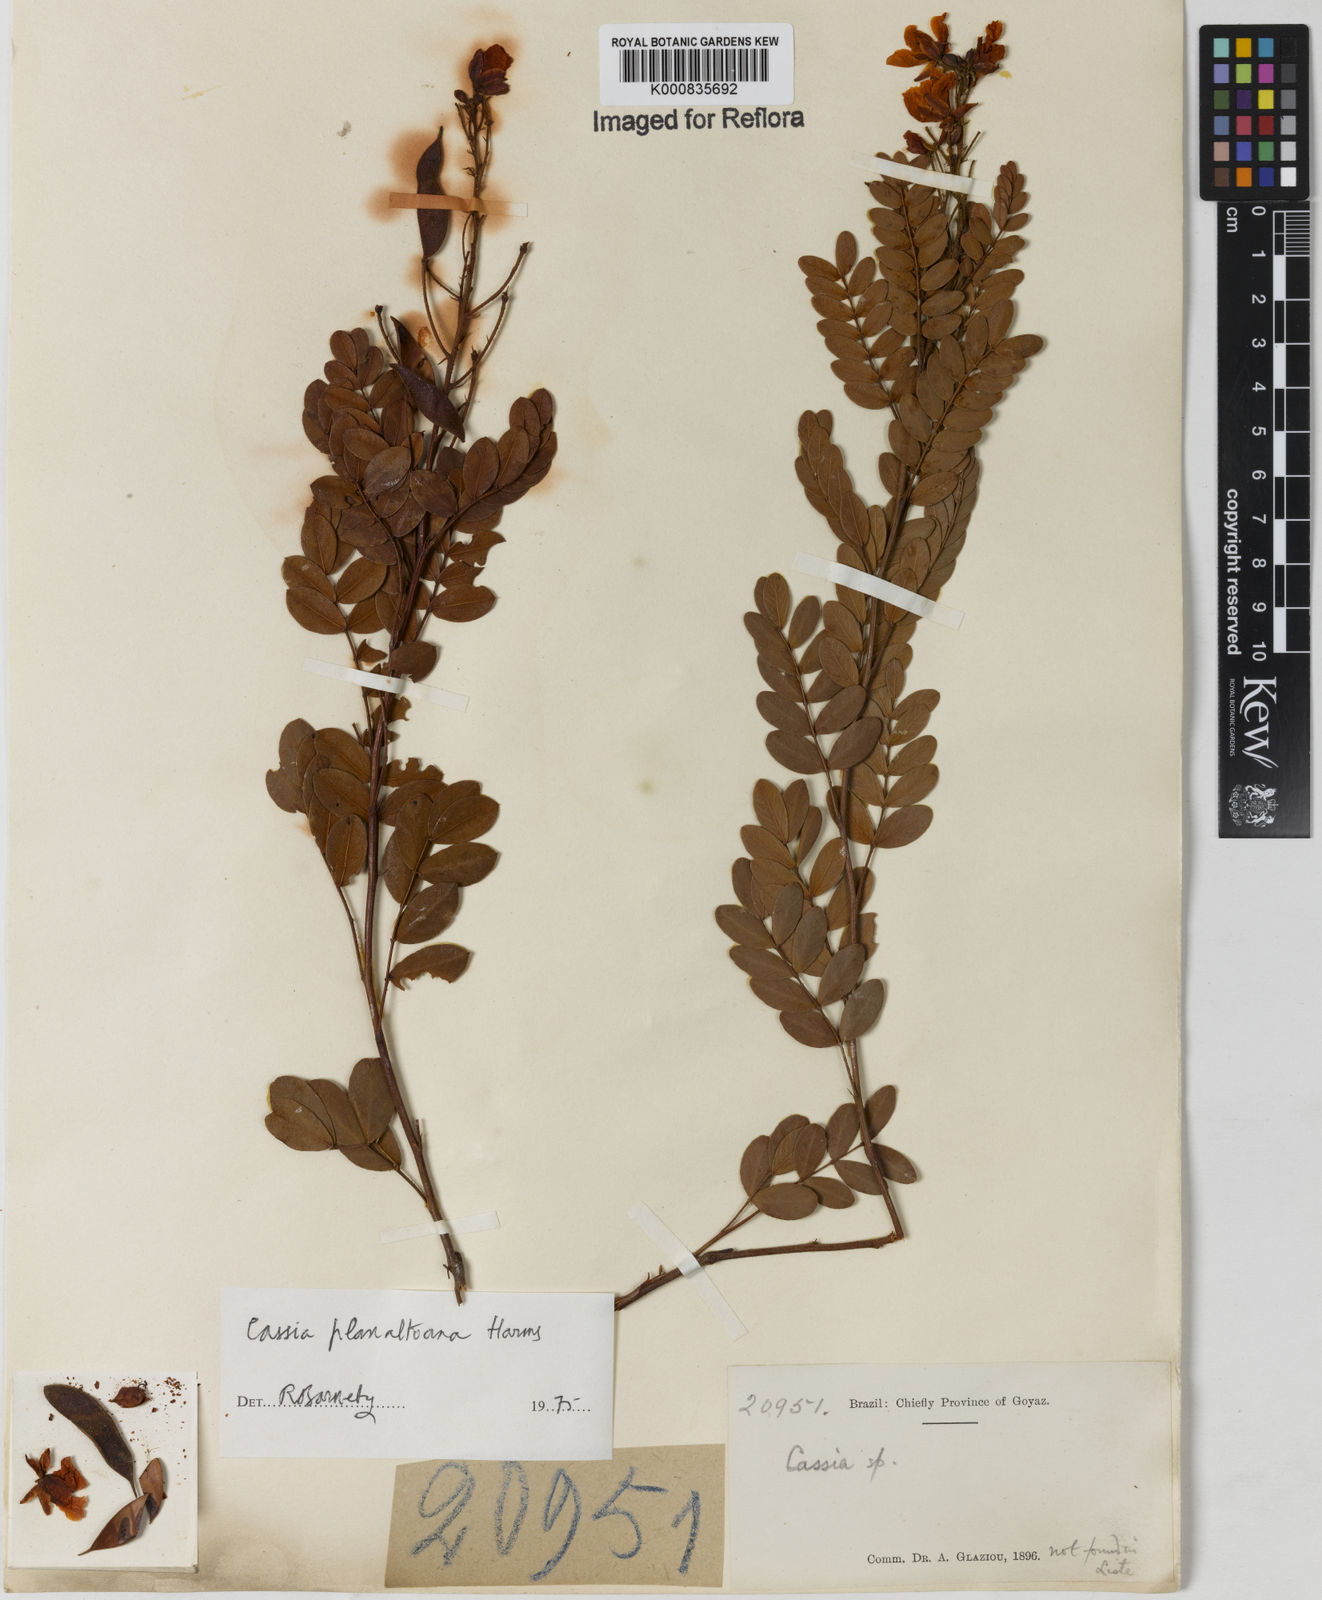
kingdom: Plantae
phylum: Tracheophyta
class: Magnoliopsida
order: Fabales
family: Fabaceae
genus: Chamaecrista
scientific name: Chamaecrista planaltoana
